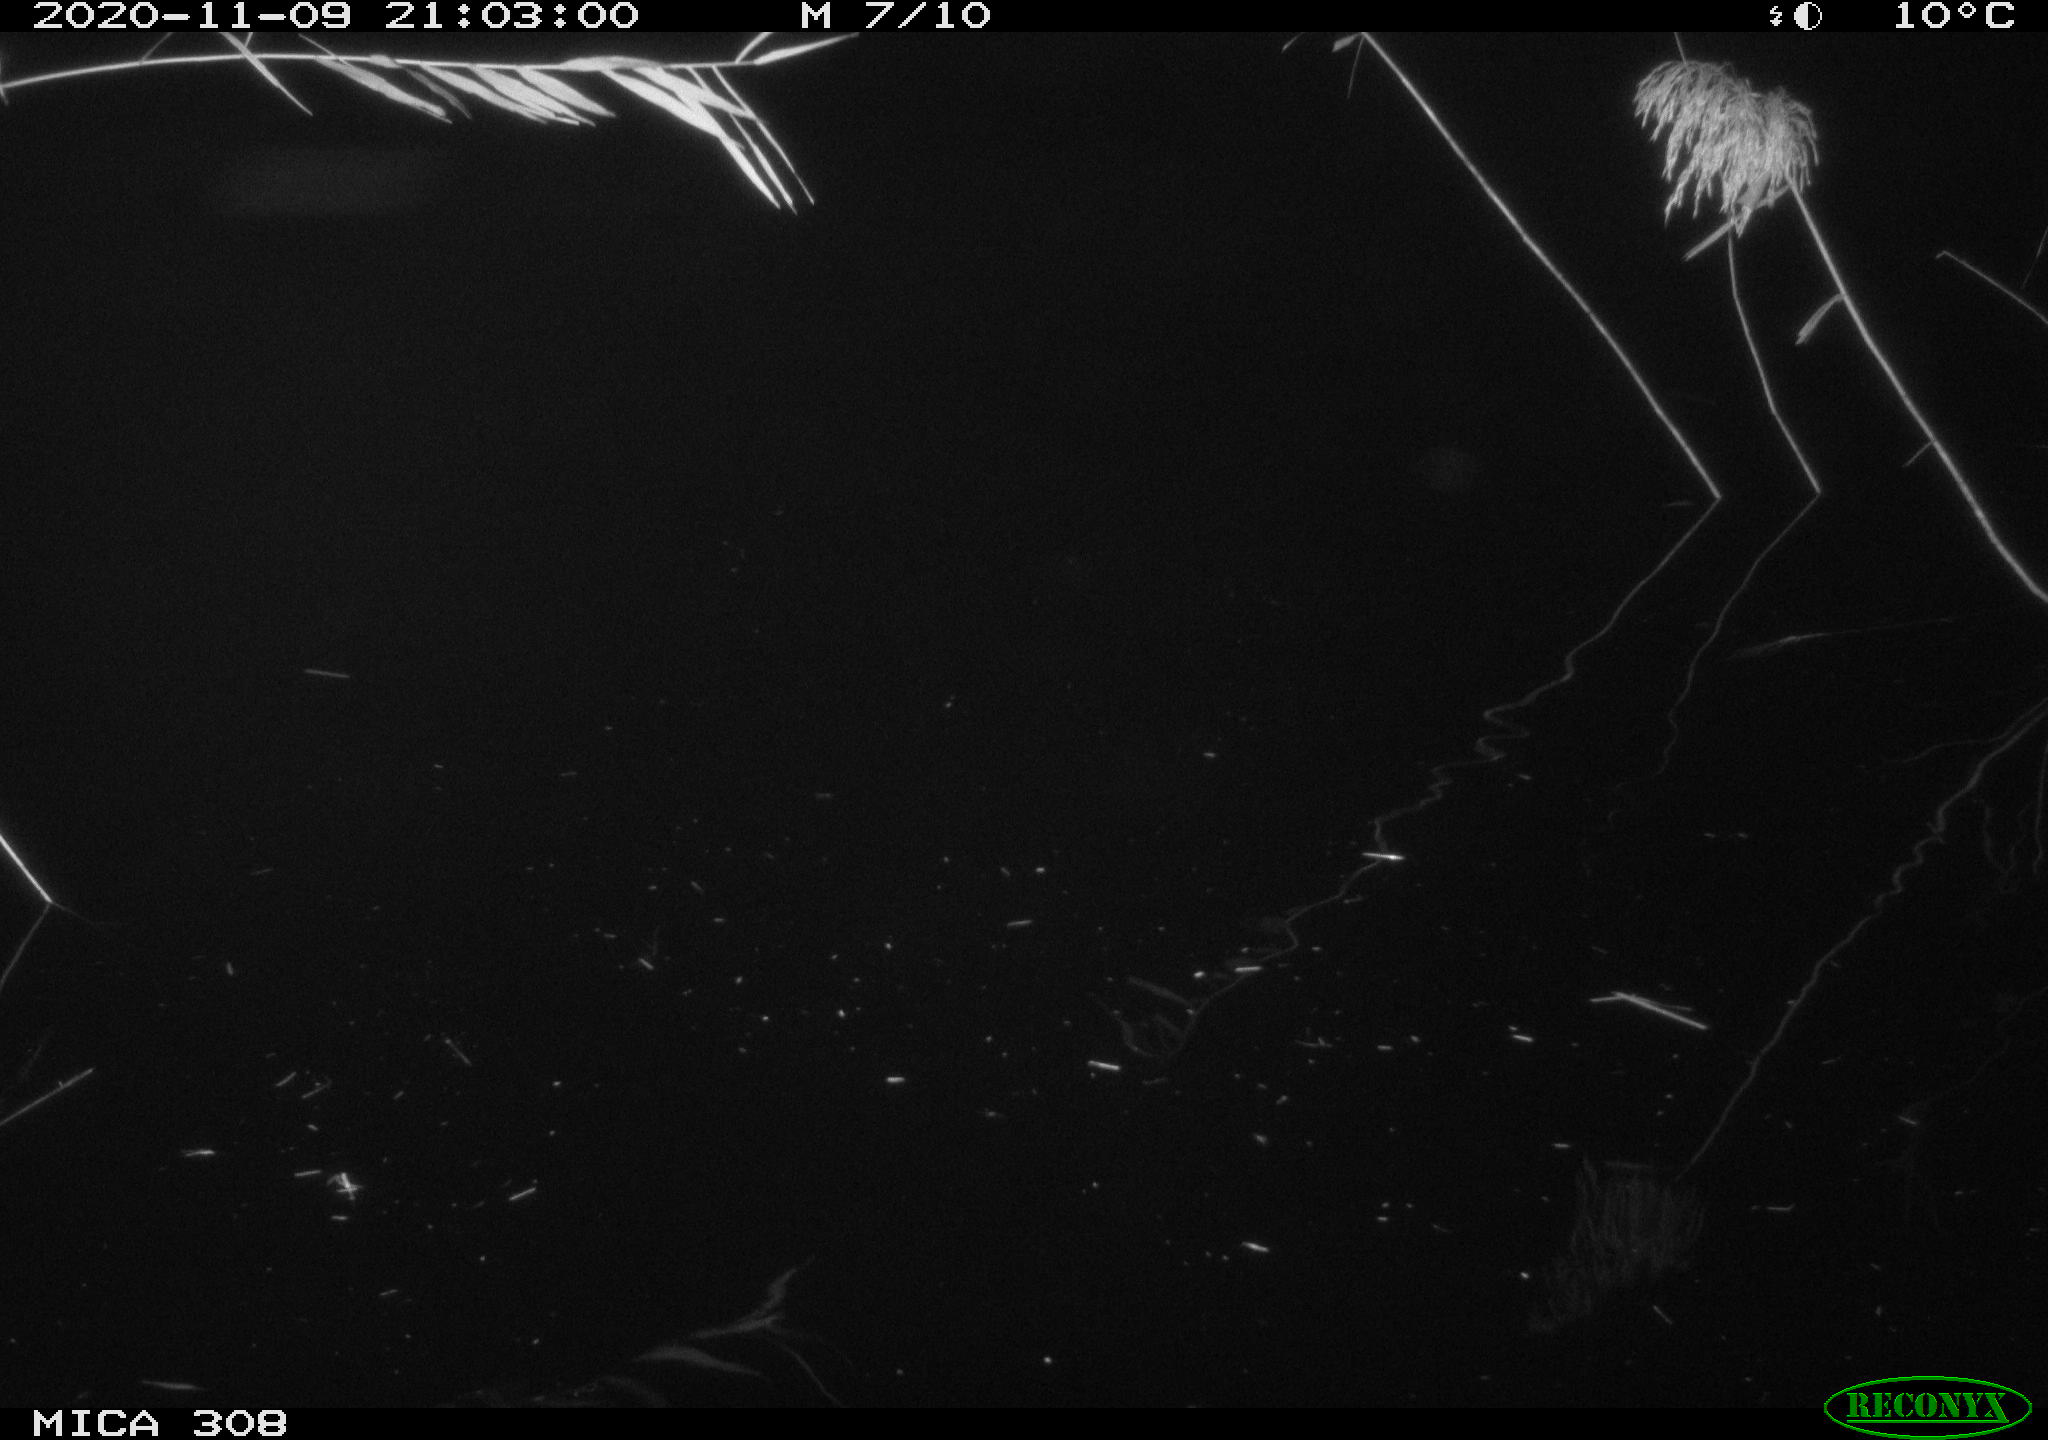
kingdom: Animalia
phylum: Chordata
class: Mammalia
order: Rodentia
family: Cricetidae
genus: Ondatra
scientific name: Ondatra zibethicus
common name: Muskrat
